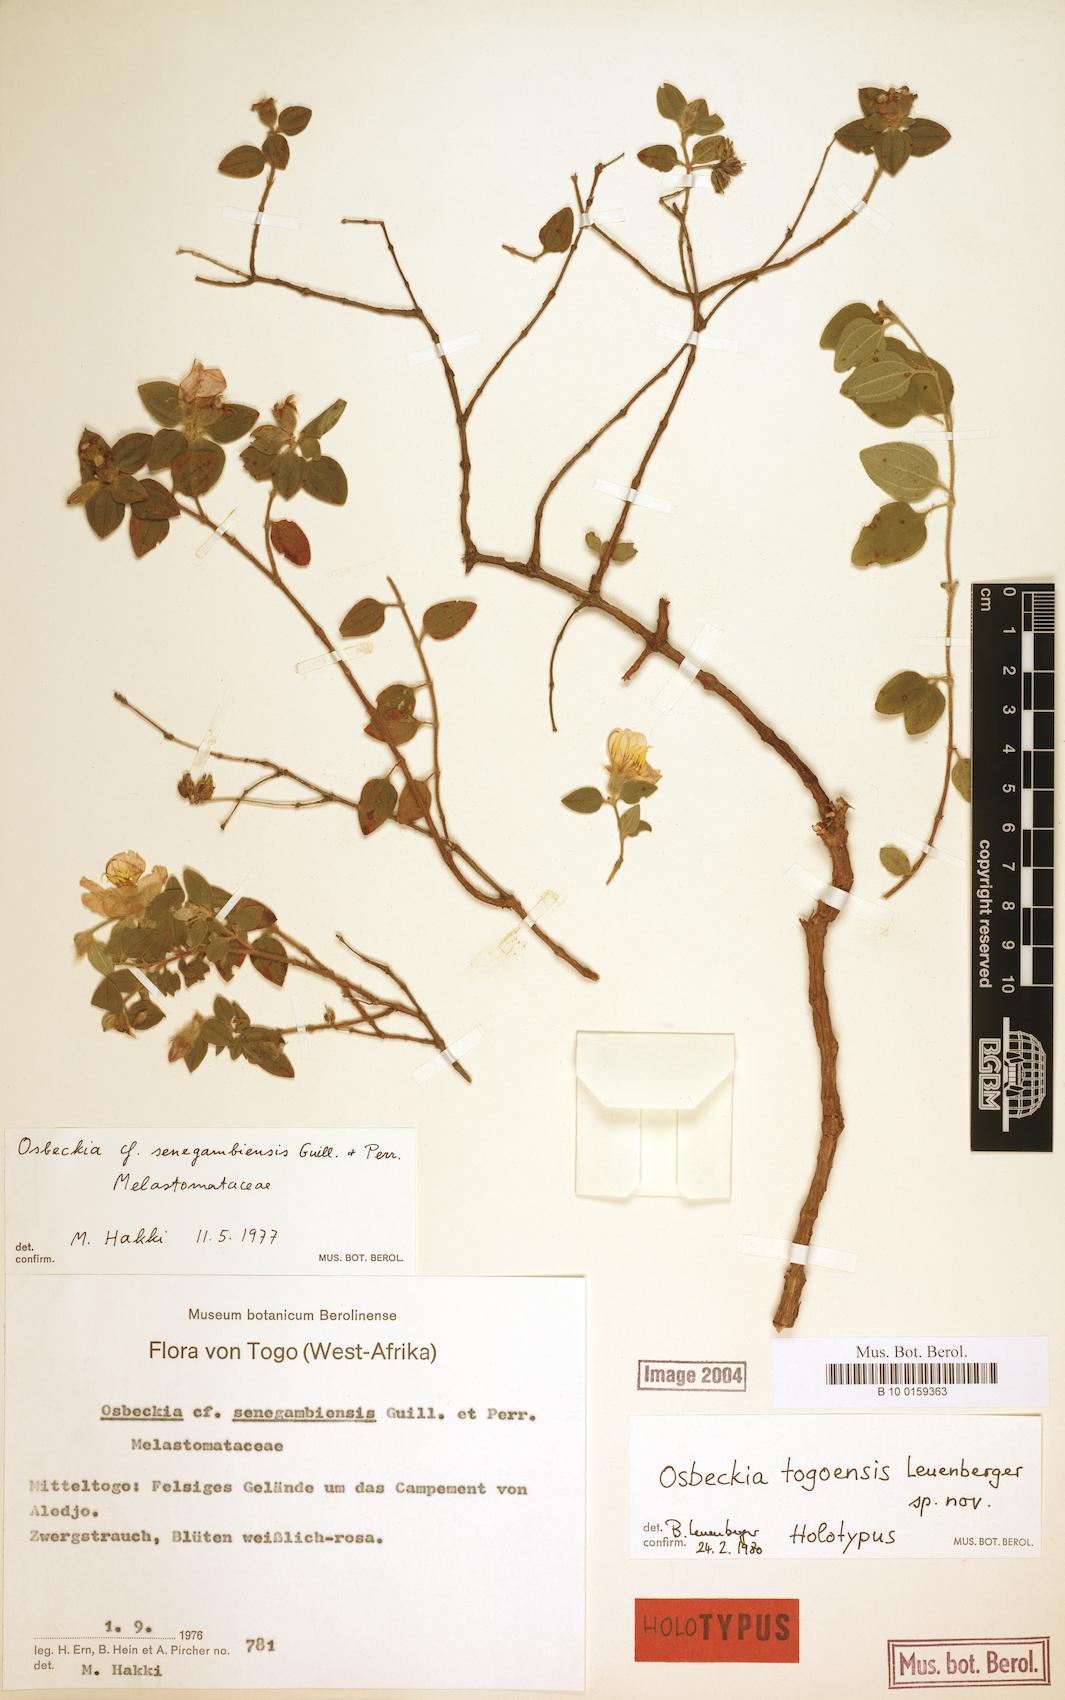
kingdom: Plantae
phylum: Tracheophyta
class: Magnoliopsida
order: Myrtales
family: Melastomataceae
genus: Nerophila
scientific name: Nerophila togoensis
